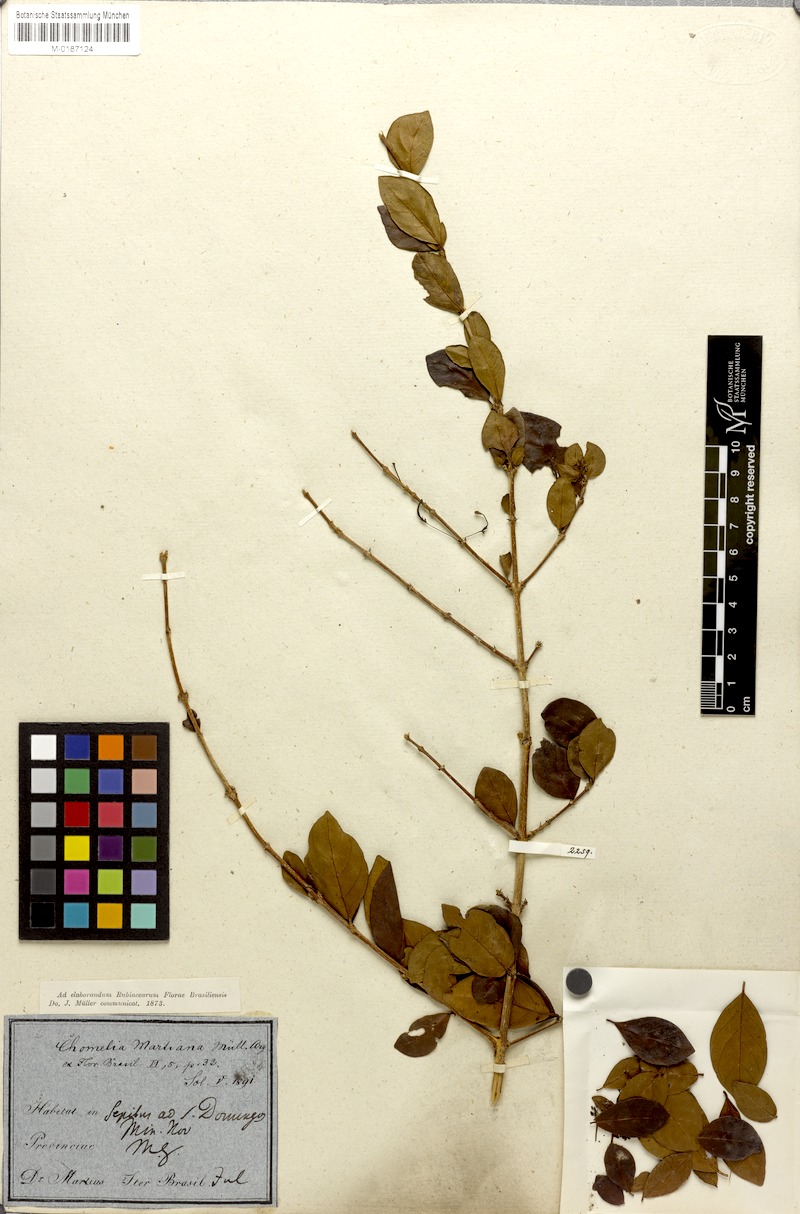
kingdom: Plantae
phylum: Tracheophyta
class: Magnoliopsida
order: Gentianales
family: Rubiaceae
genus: Chomelia
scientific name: Chomelia obtusa
